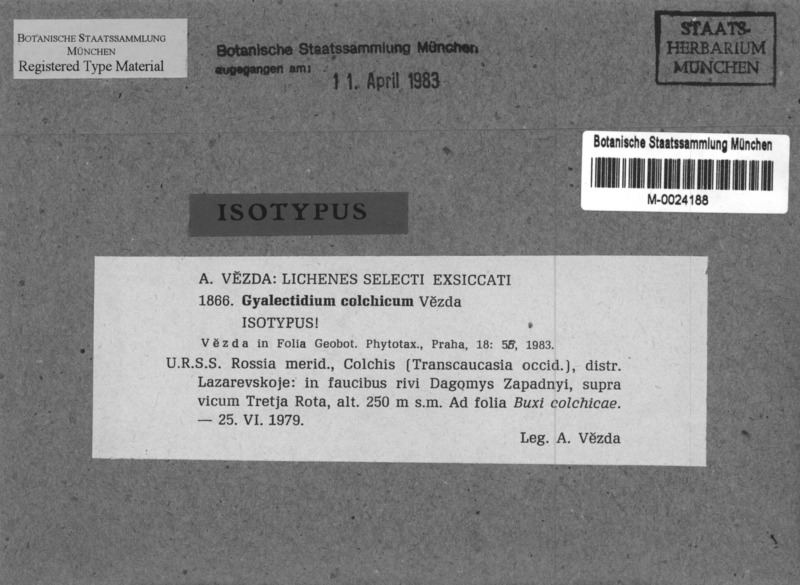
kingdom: Fungi
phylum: Ascomycota
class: Lecanoromycetes
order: Ostropales
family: Gomphillaceae
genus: Gyalectidium
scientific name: Gyalectidium colchicum
